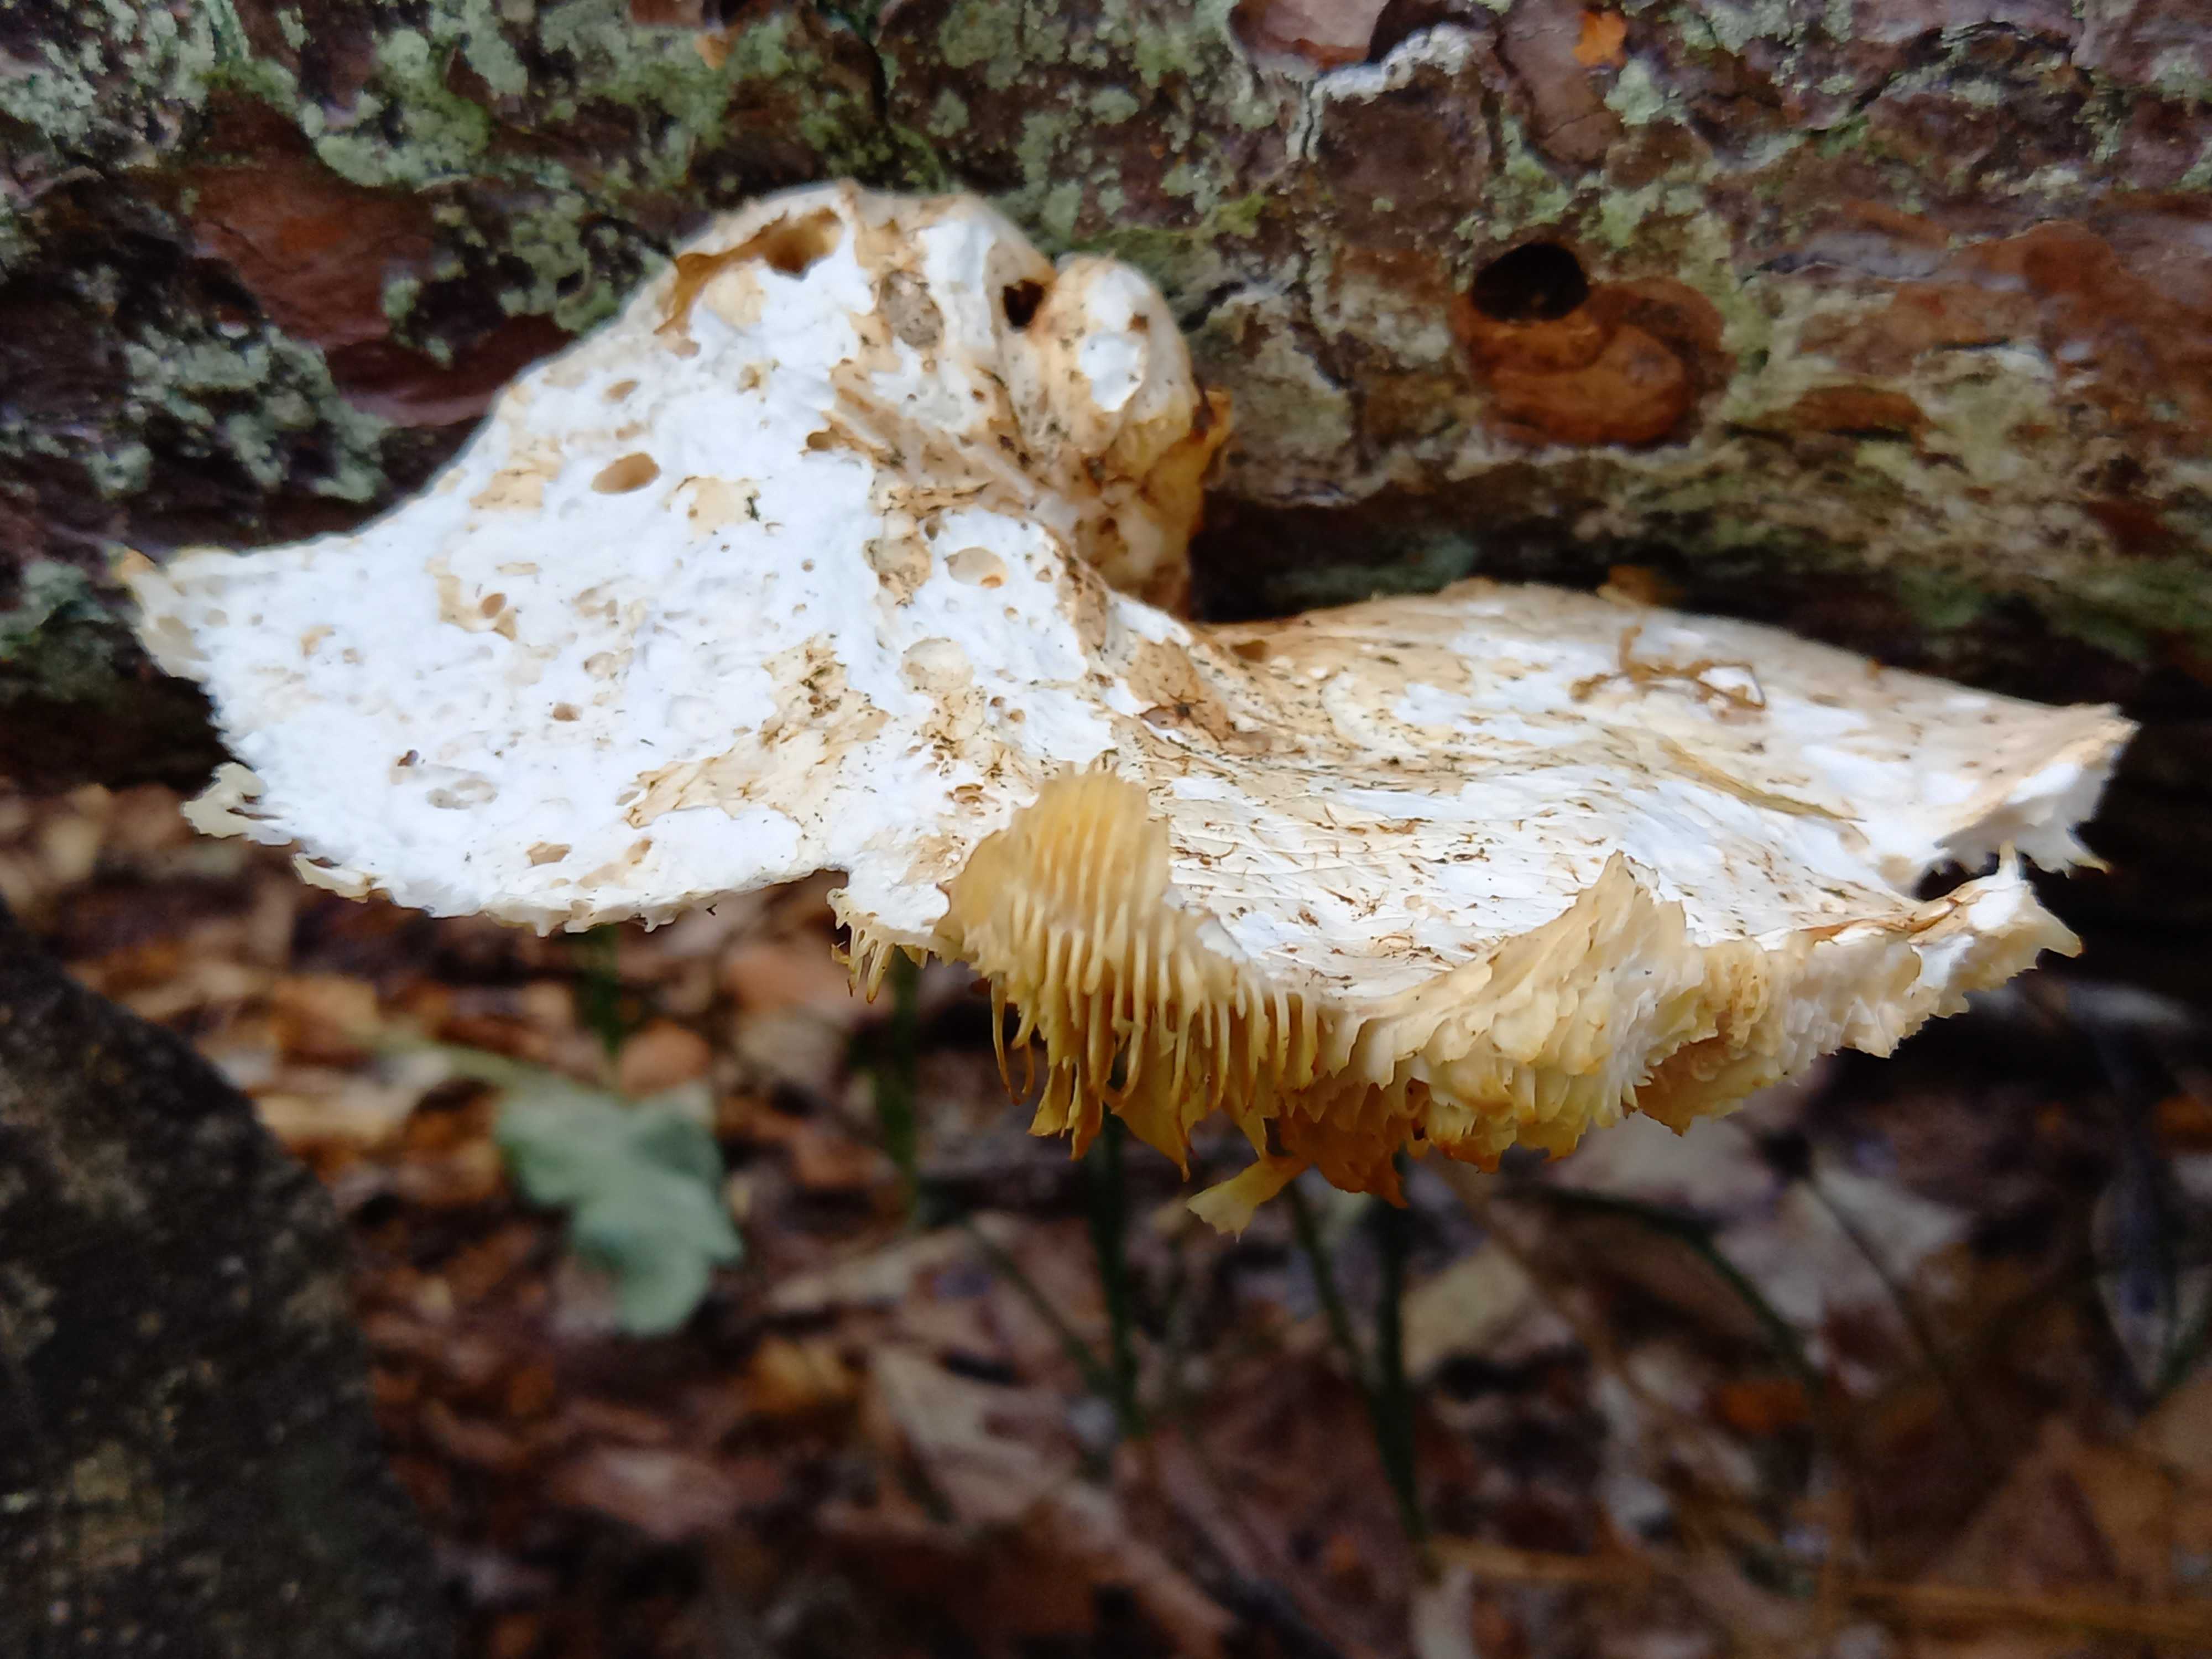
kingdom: Fungi
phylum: Basidiomycota
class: Agaricomycetes
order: Gloeophyllales
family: Gloeophyllaceae
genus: Neolentinus
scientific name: Neolentinus lepideus
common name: skællet sejhat
